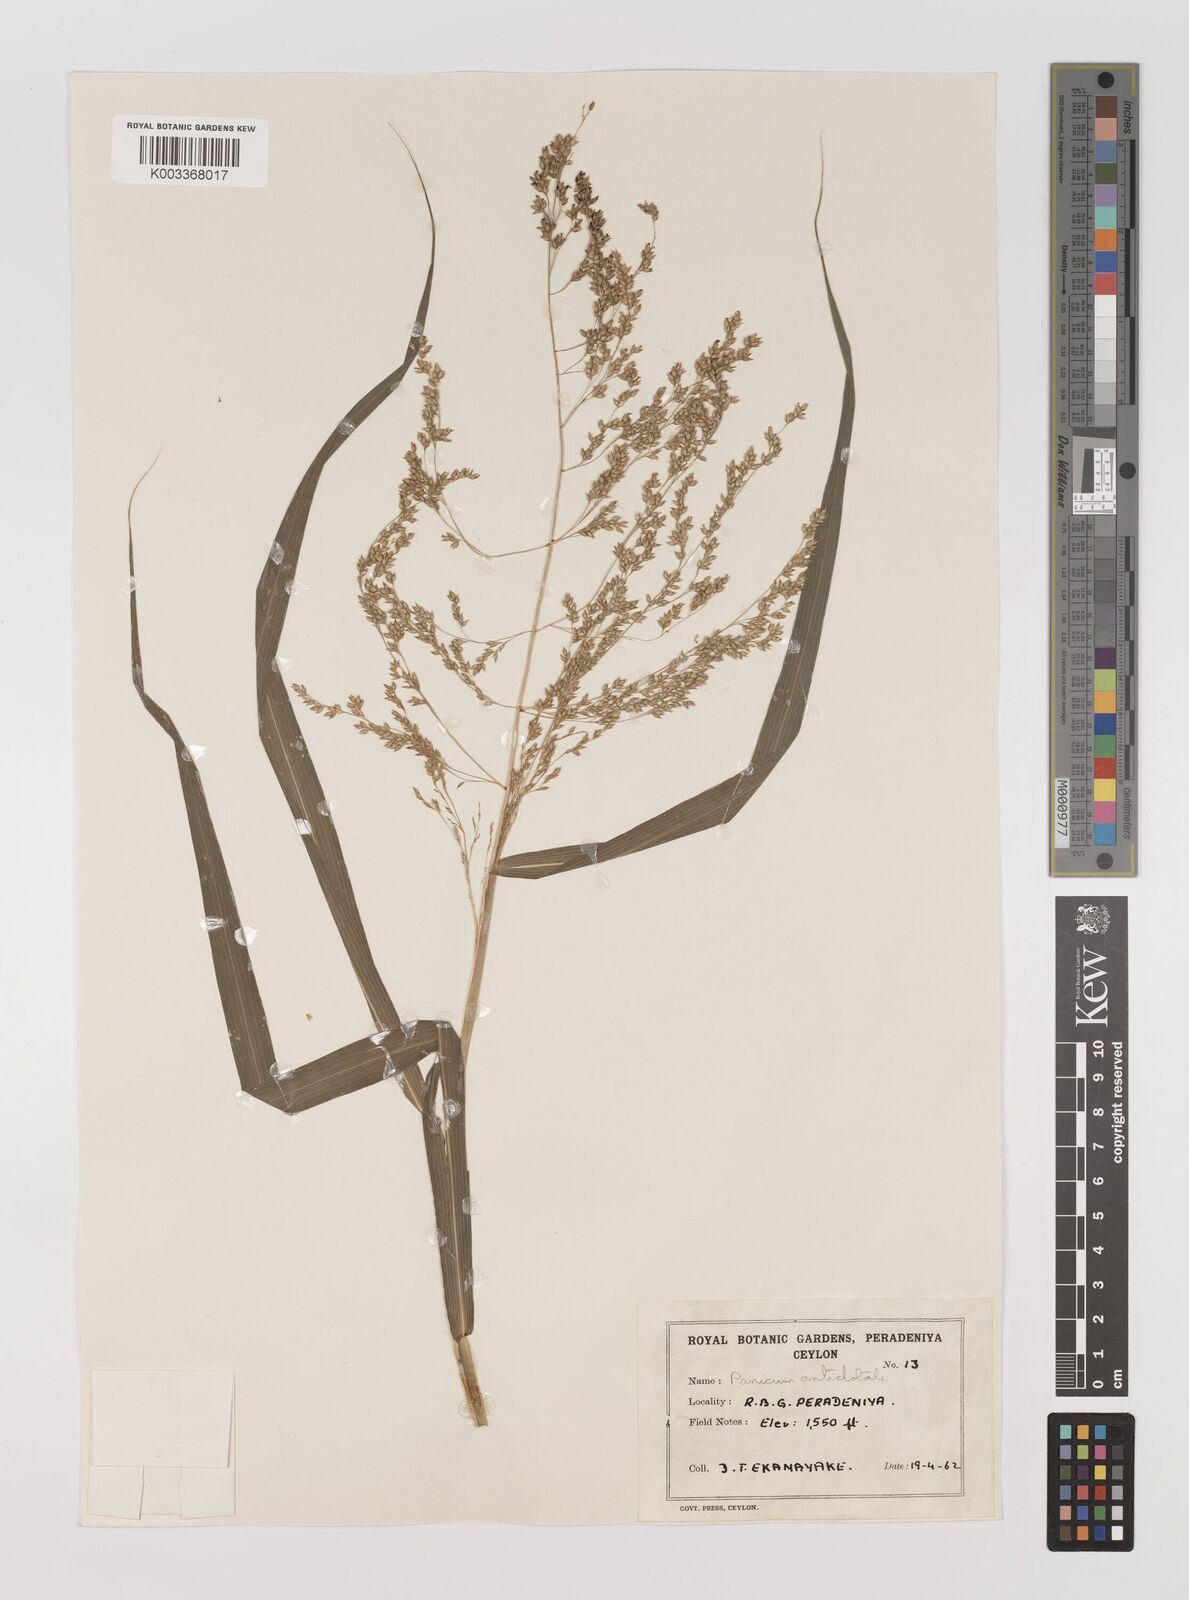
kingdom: Plantae
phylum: Tracheophyta
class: Liliopsida
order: Poales
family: Poaceae
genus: Panicum
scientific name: Panicum antidotale
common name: Blue panicum
